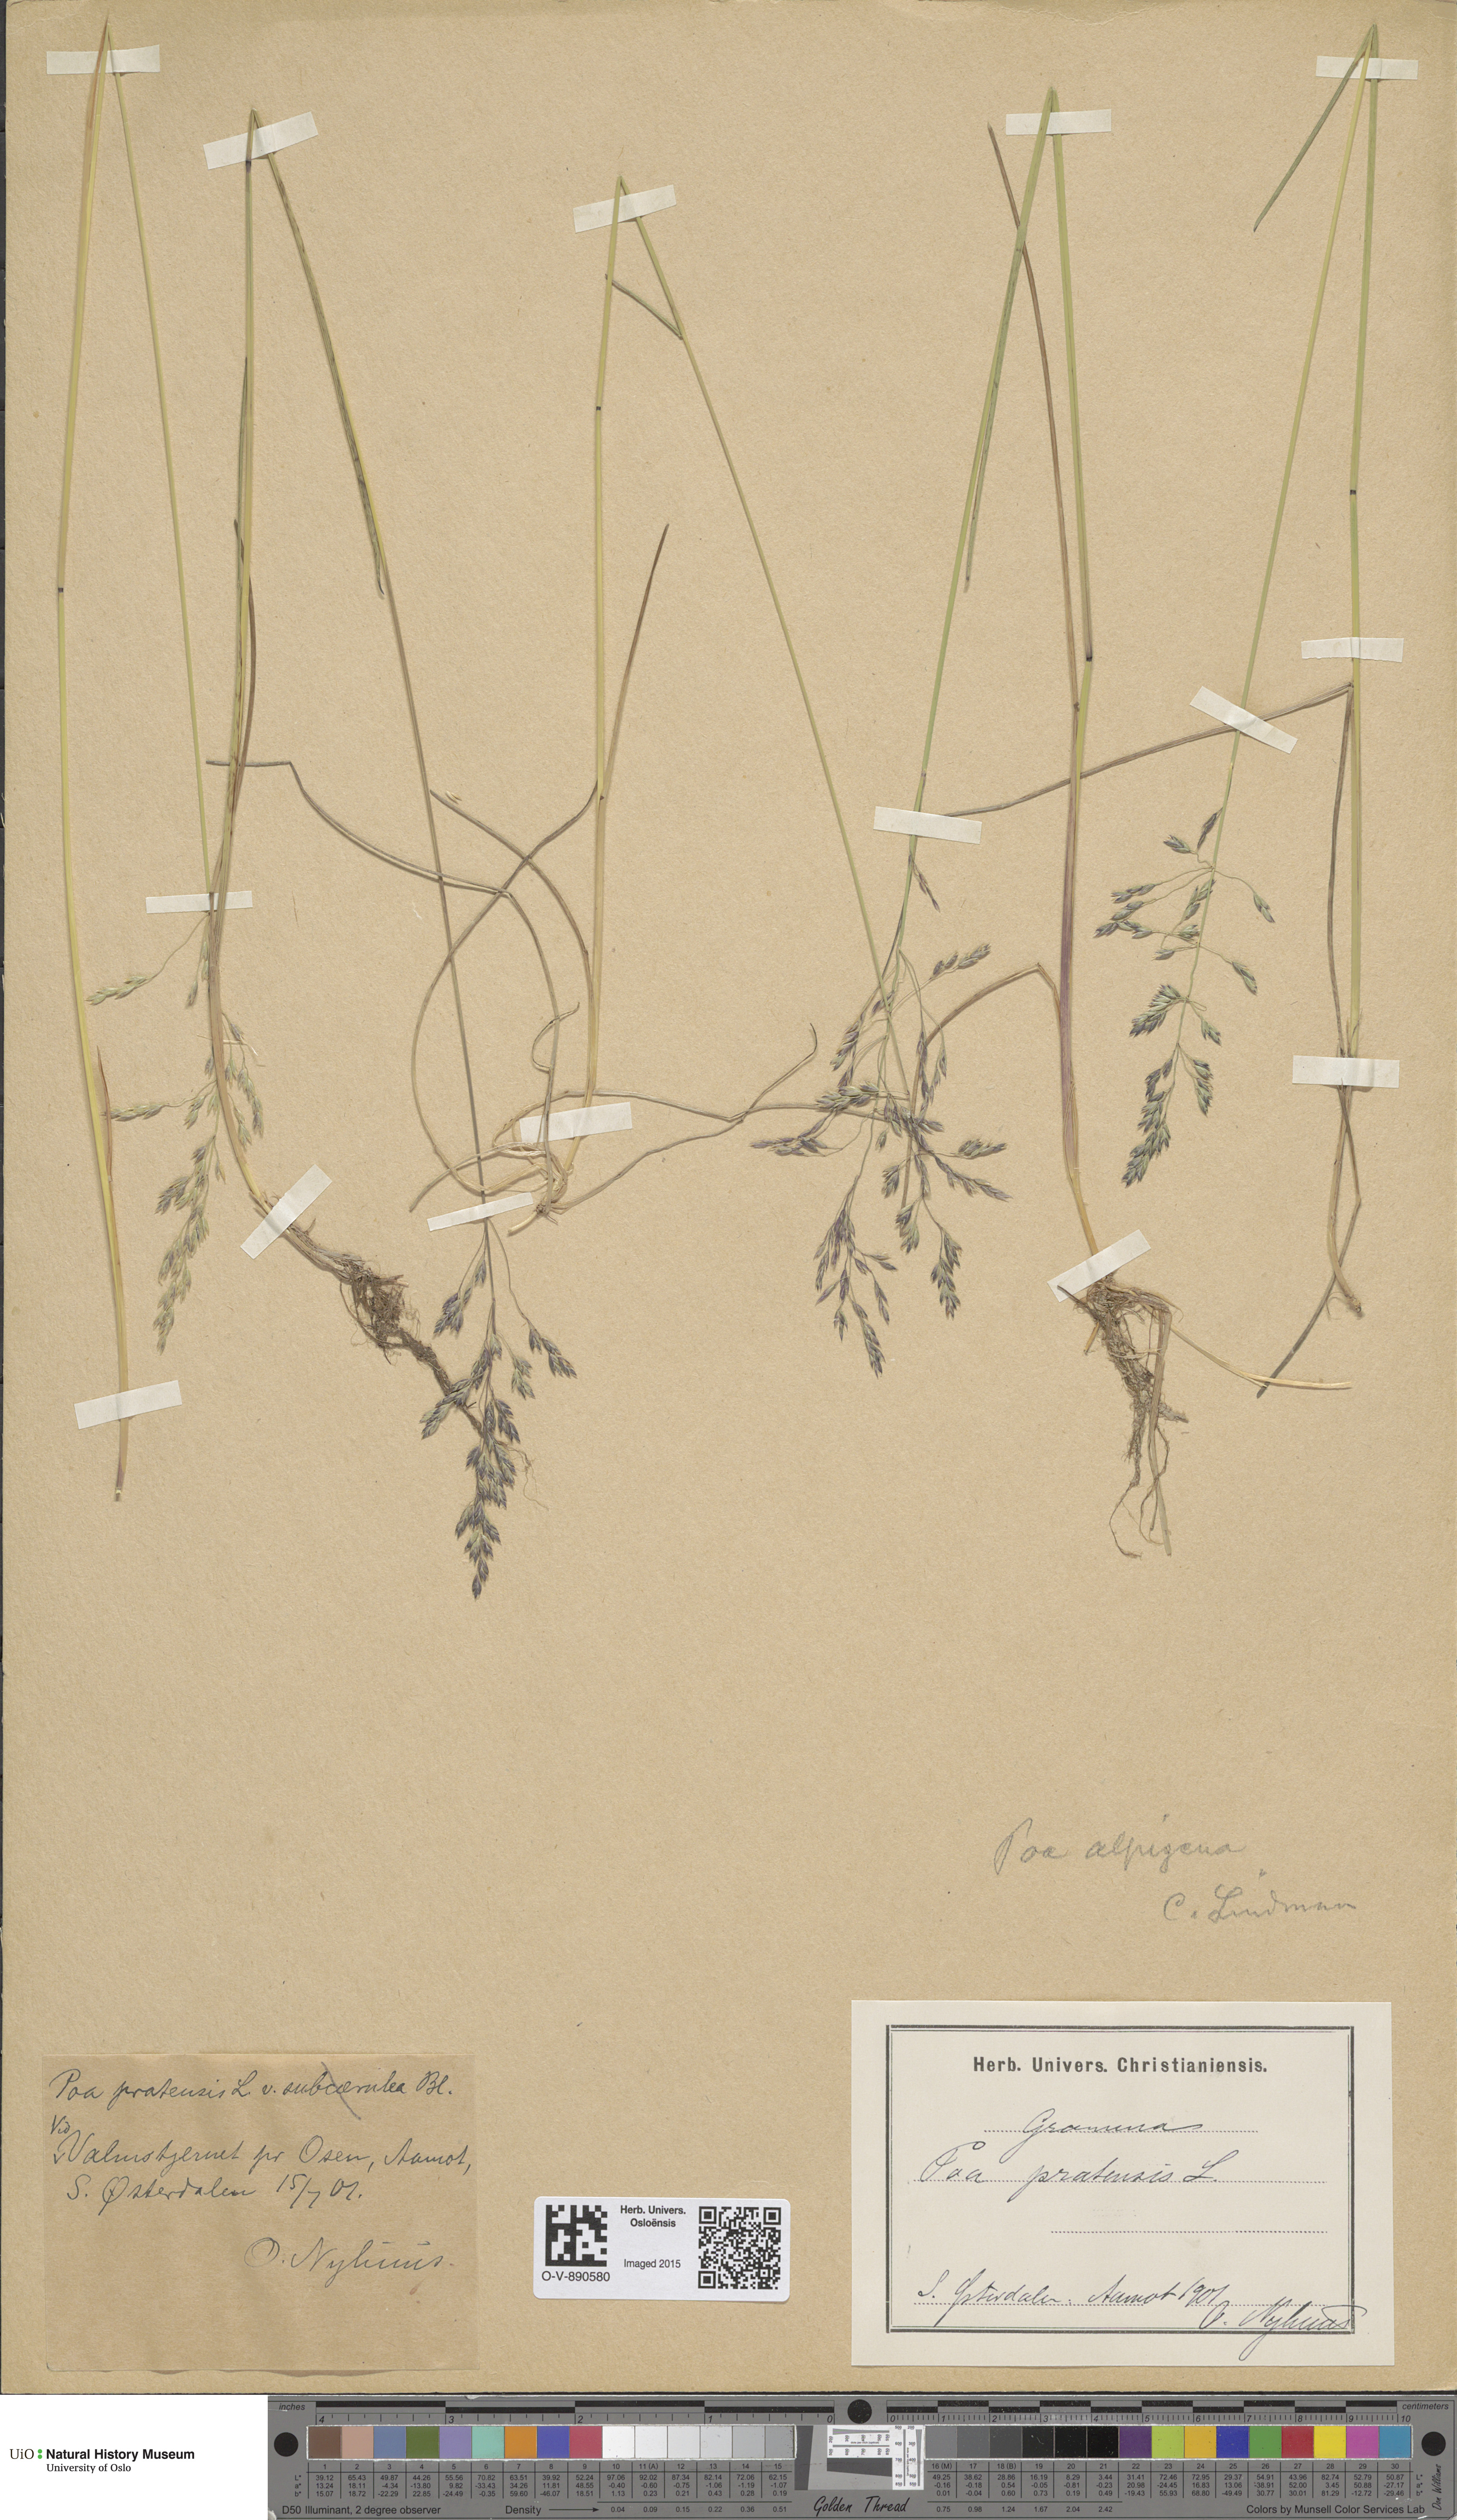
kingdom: Plantae
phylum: Tracheophyta
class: Liliopsida
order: Poales
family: Poaceae
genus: Poa
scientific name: Poa alpigena
